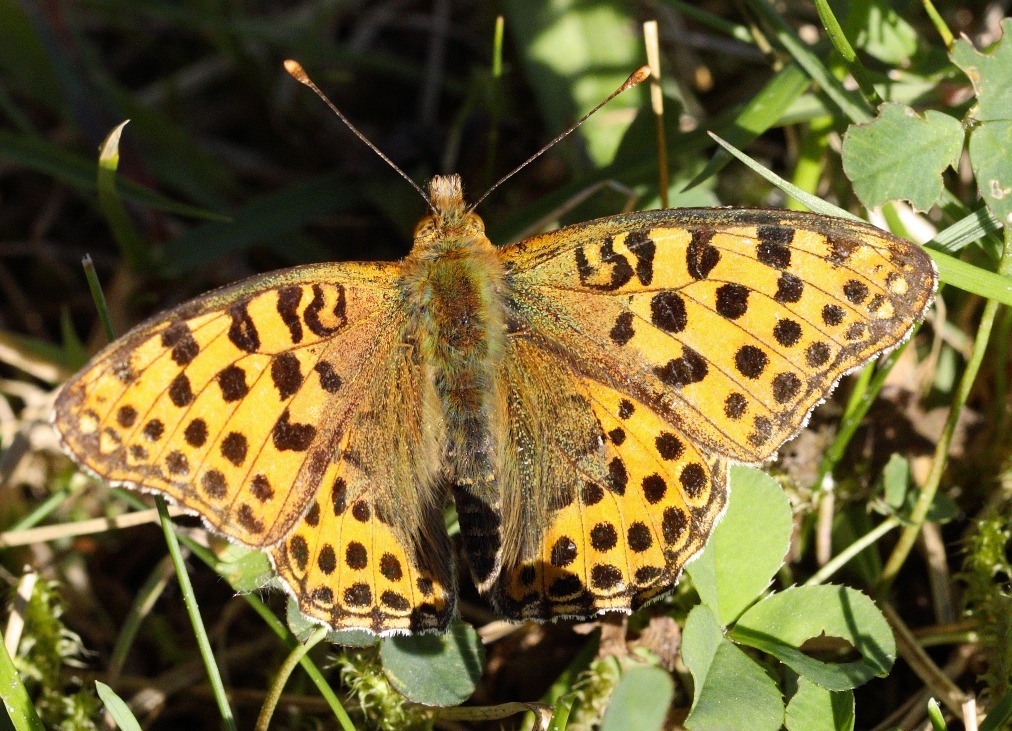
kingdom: Animalia
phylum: Arthropoda
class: Insecta
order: Lepidoptera
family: Nymphalidae
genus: Issoria
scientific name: Issoria lathonia
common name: Storplettet perlemorsommerfugl
